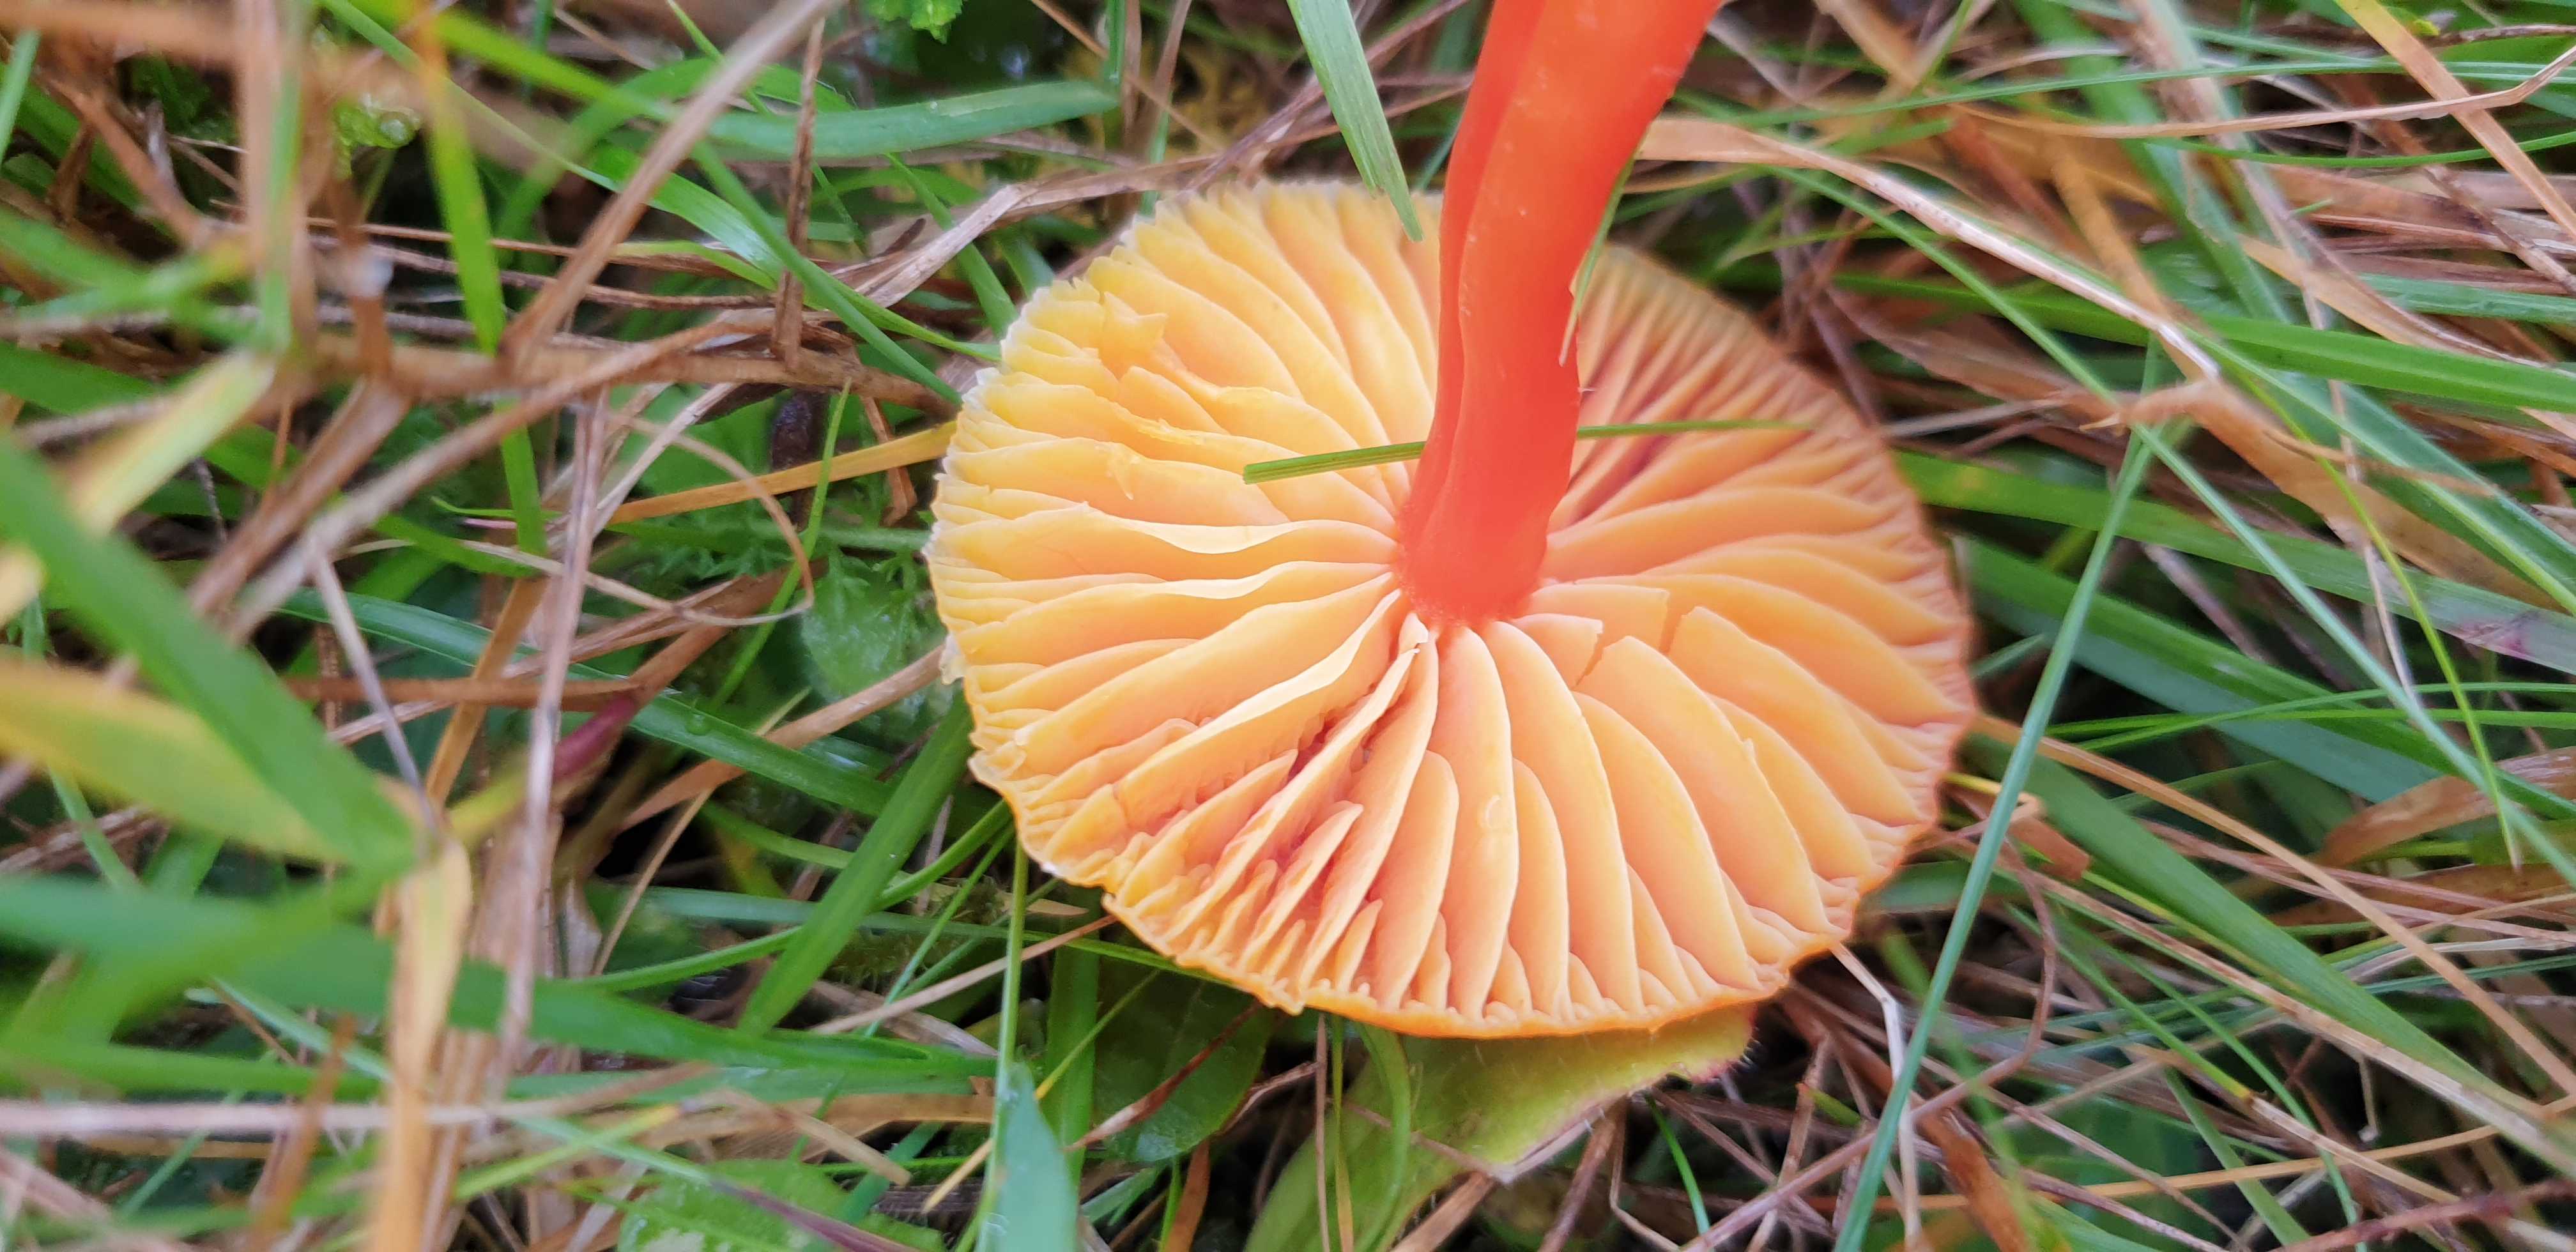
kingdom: Fungi
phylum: Basidiomycota
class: Agaricomycetes
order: Agaricales
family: Hygrophoraceae
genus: Hygrocybe
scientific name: Hygrocybe coccinea
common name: cinnober-vokshat
